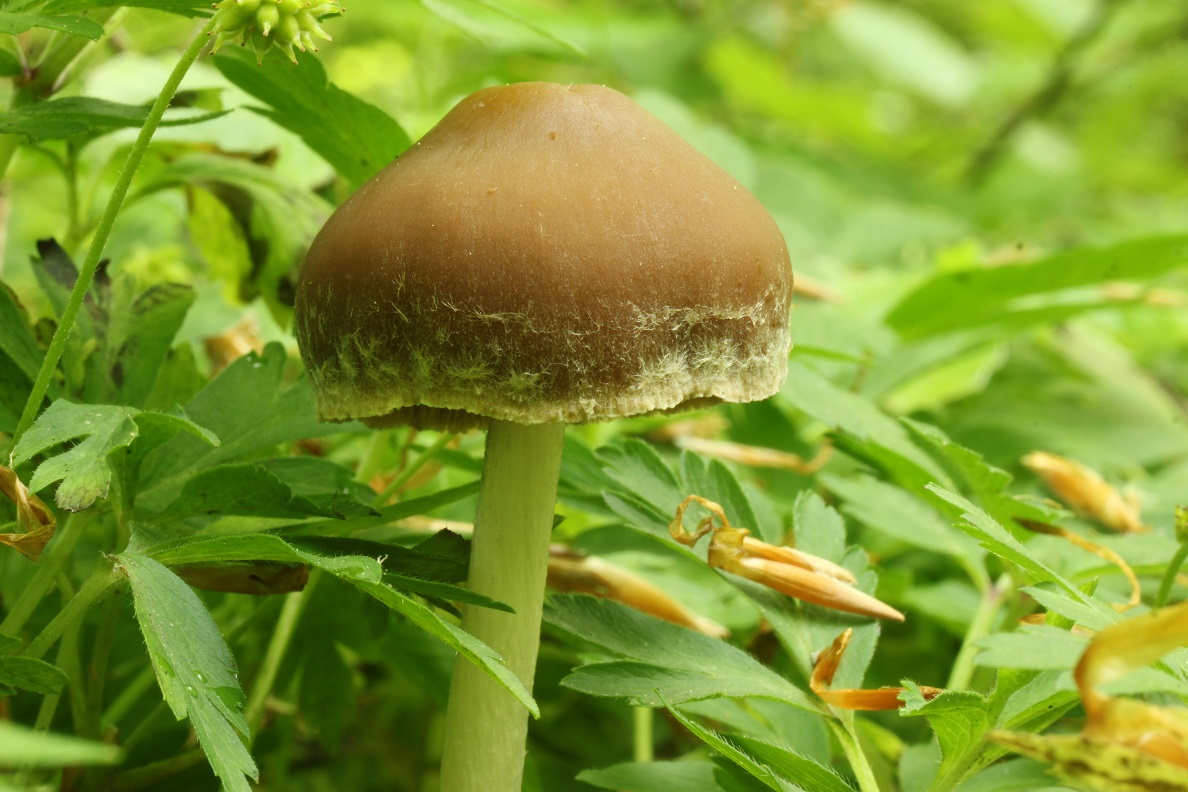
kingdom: Fungi
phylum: Basidiomycota
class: Agaricomycetes
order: Agaricales
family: Psathyrellaceae
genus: Psathyrella
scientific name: Psathyrella spadiceogrisea
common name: gråbrun mørkhat
